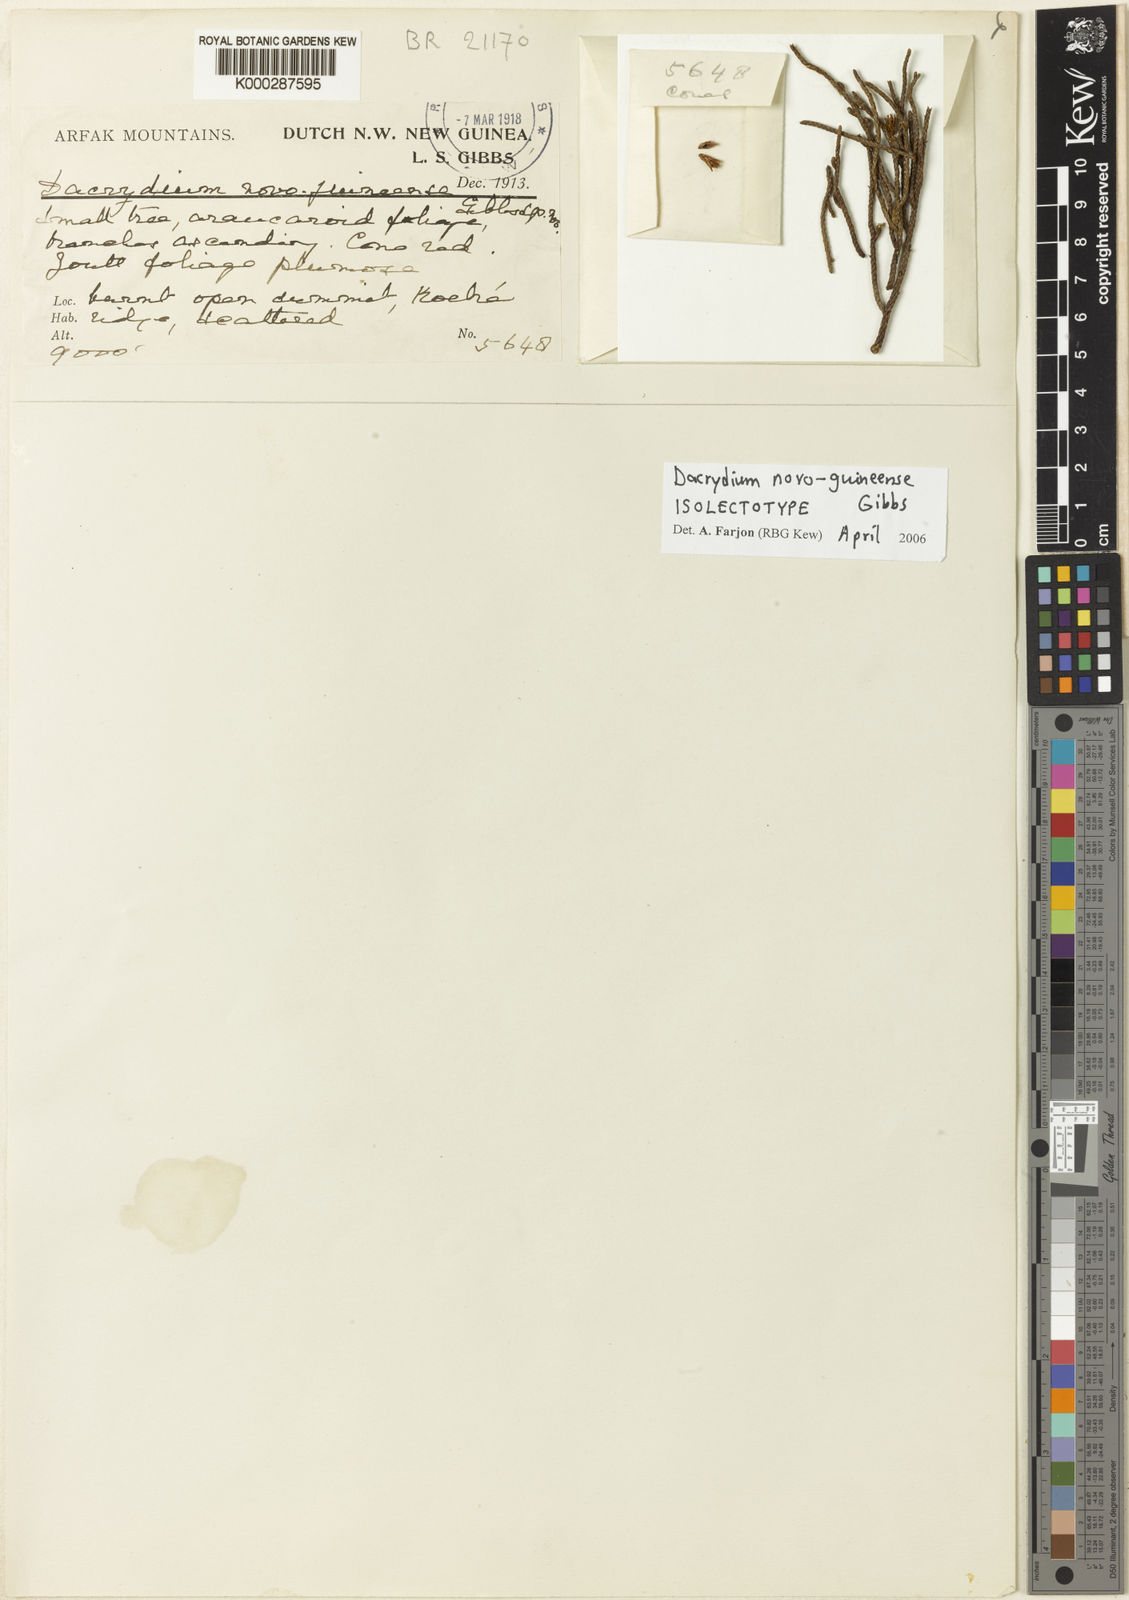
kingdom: Plantae
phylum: Tracheophyta
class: Pinopsida
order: Pinales
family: Podocarpaceae
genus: Dacrydium
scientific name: Dacrydium novoguineense
